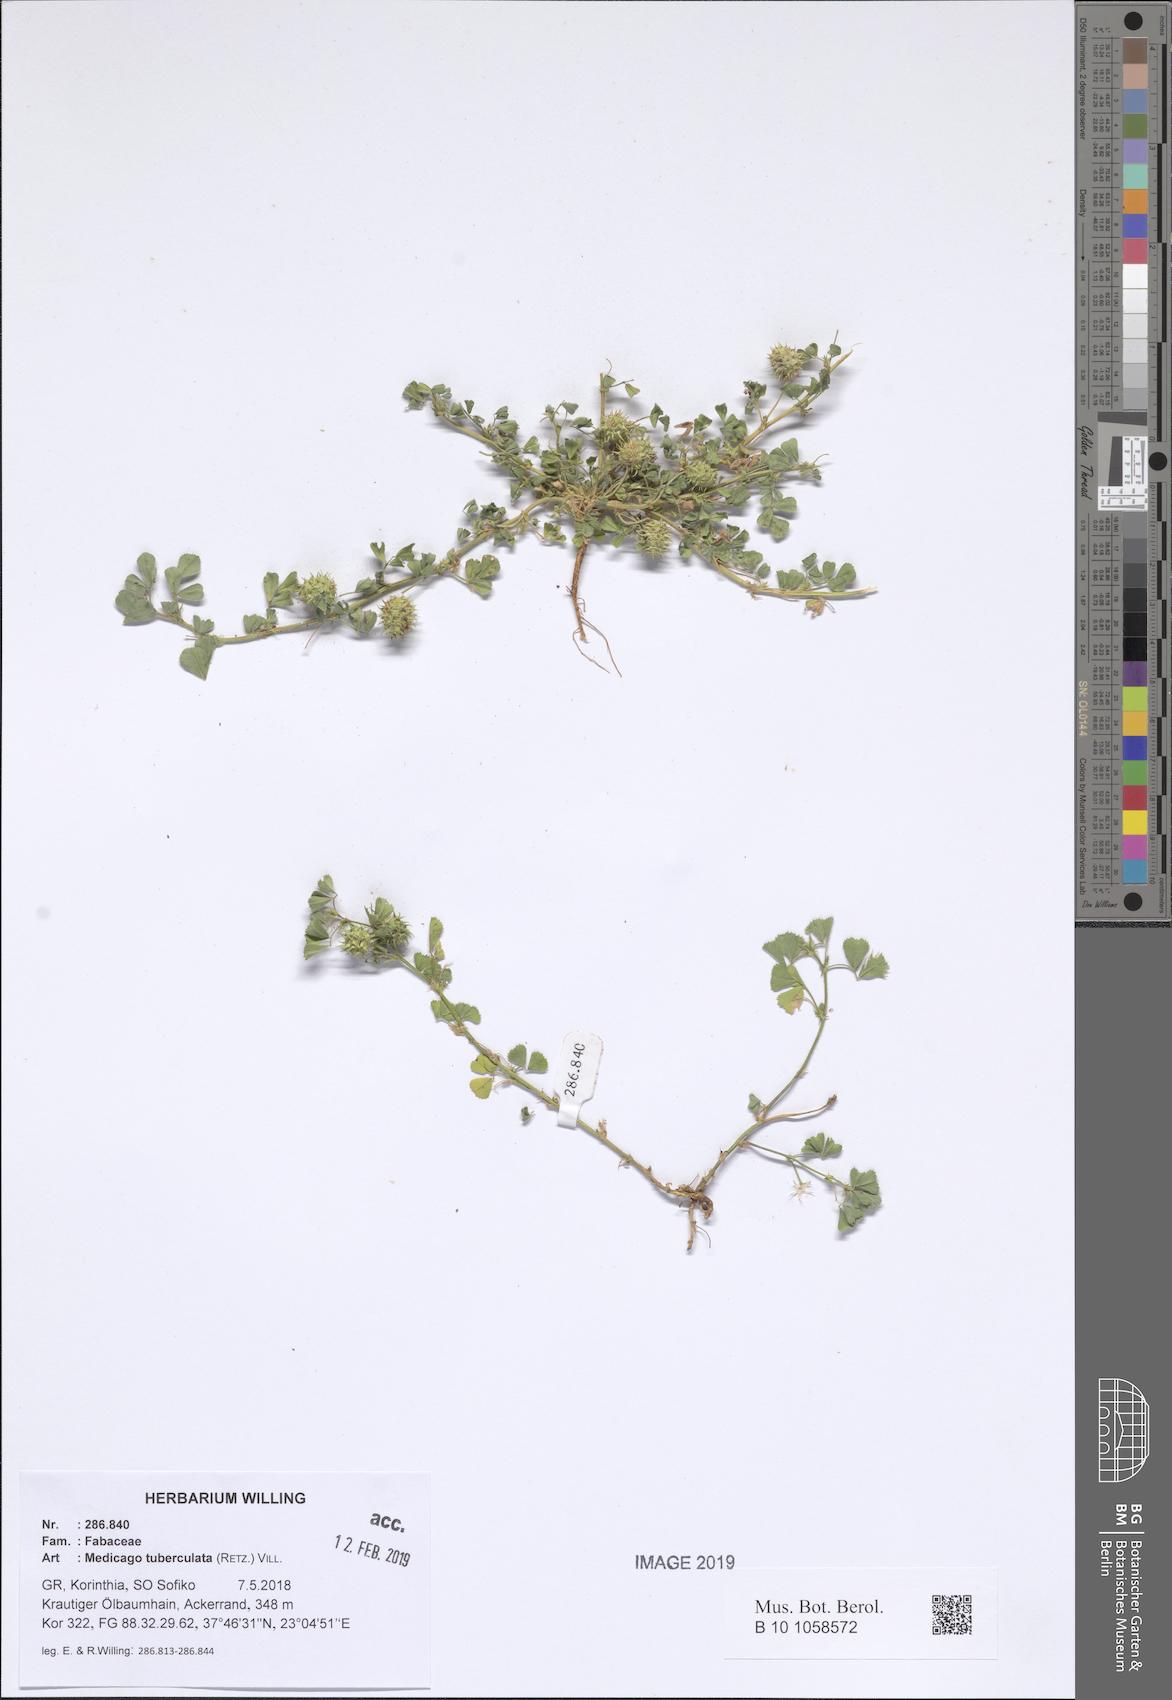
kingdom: Plantae
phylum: Tracheophyta
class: Magnoliopsida
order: Fabales
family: Fabaceae
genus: Medicago
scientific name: Medicago turbinata
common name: Southern medick
